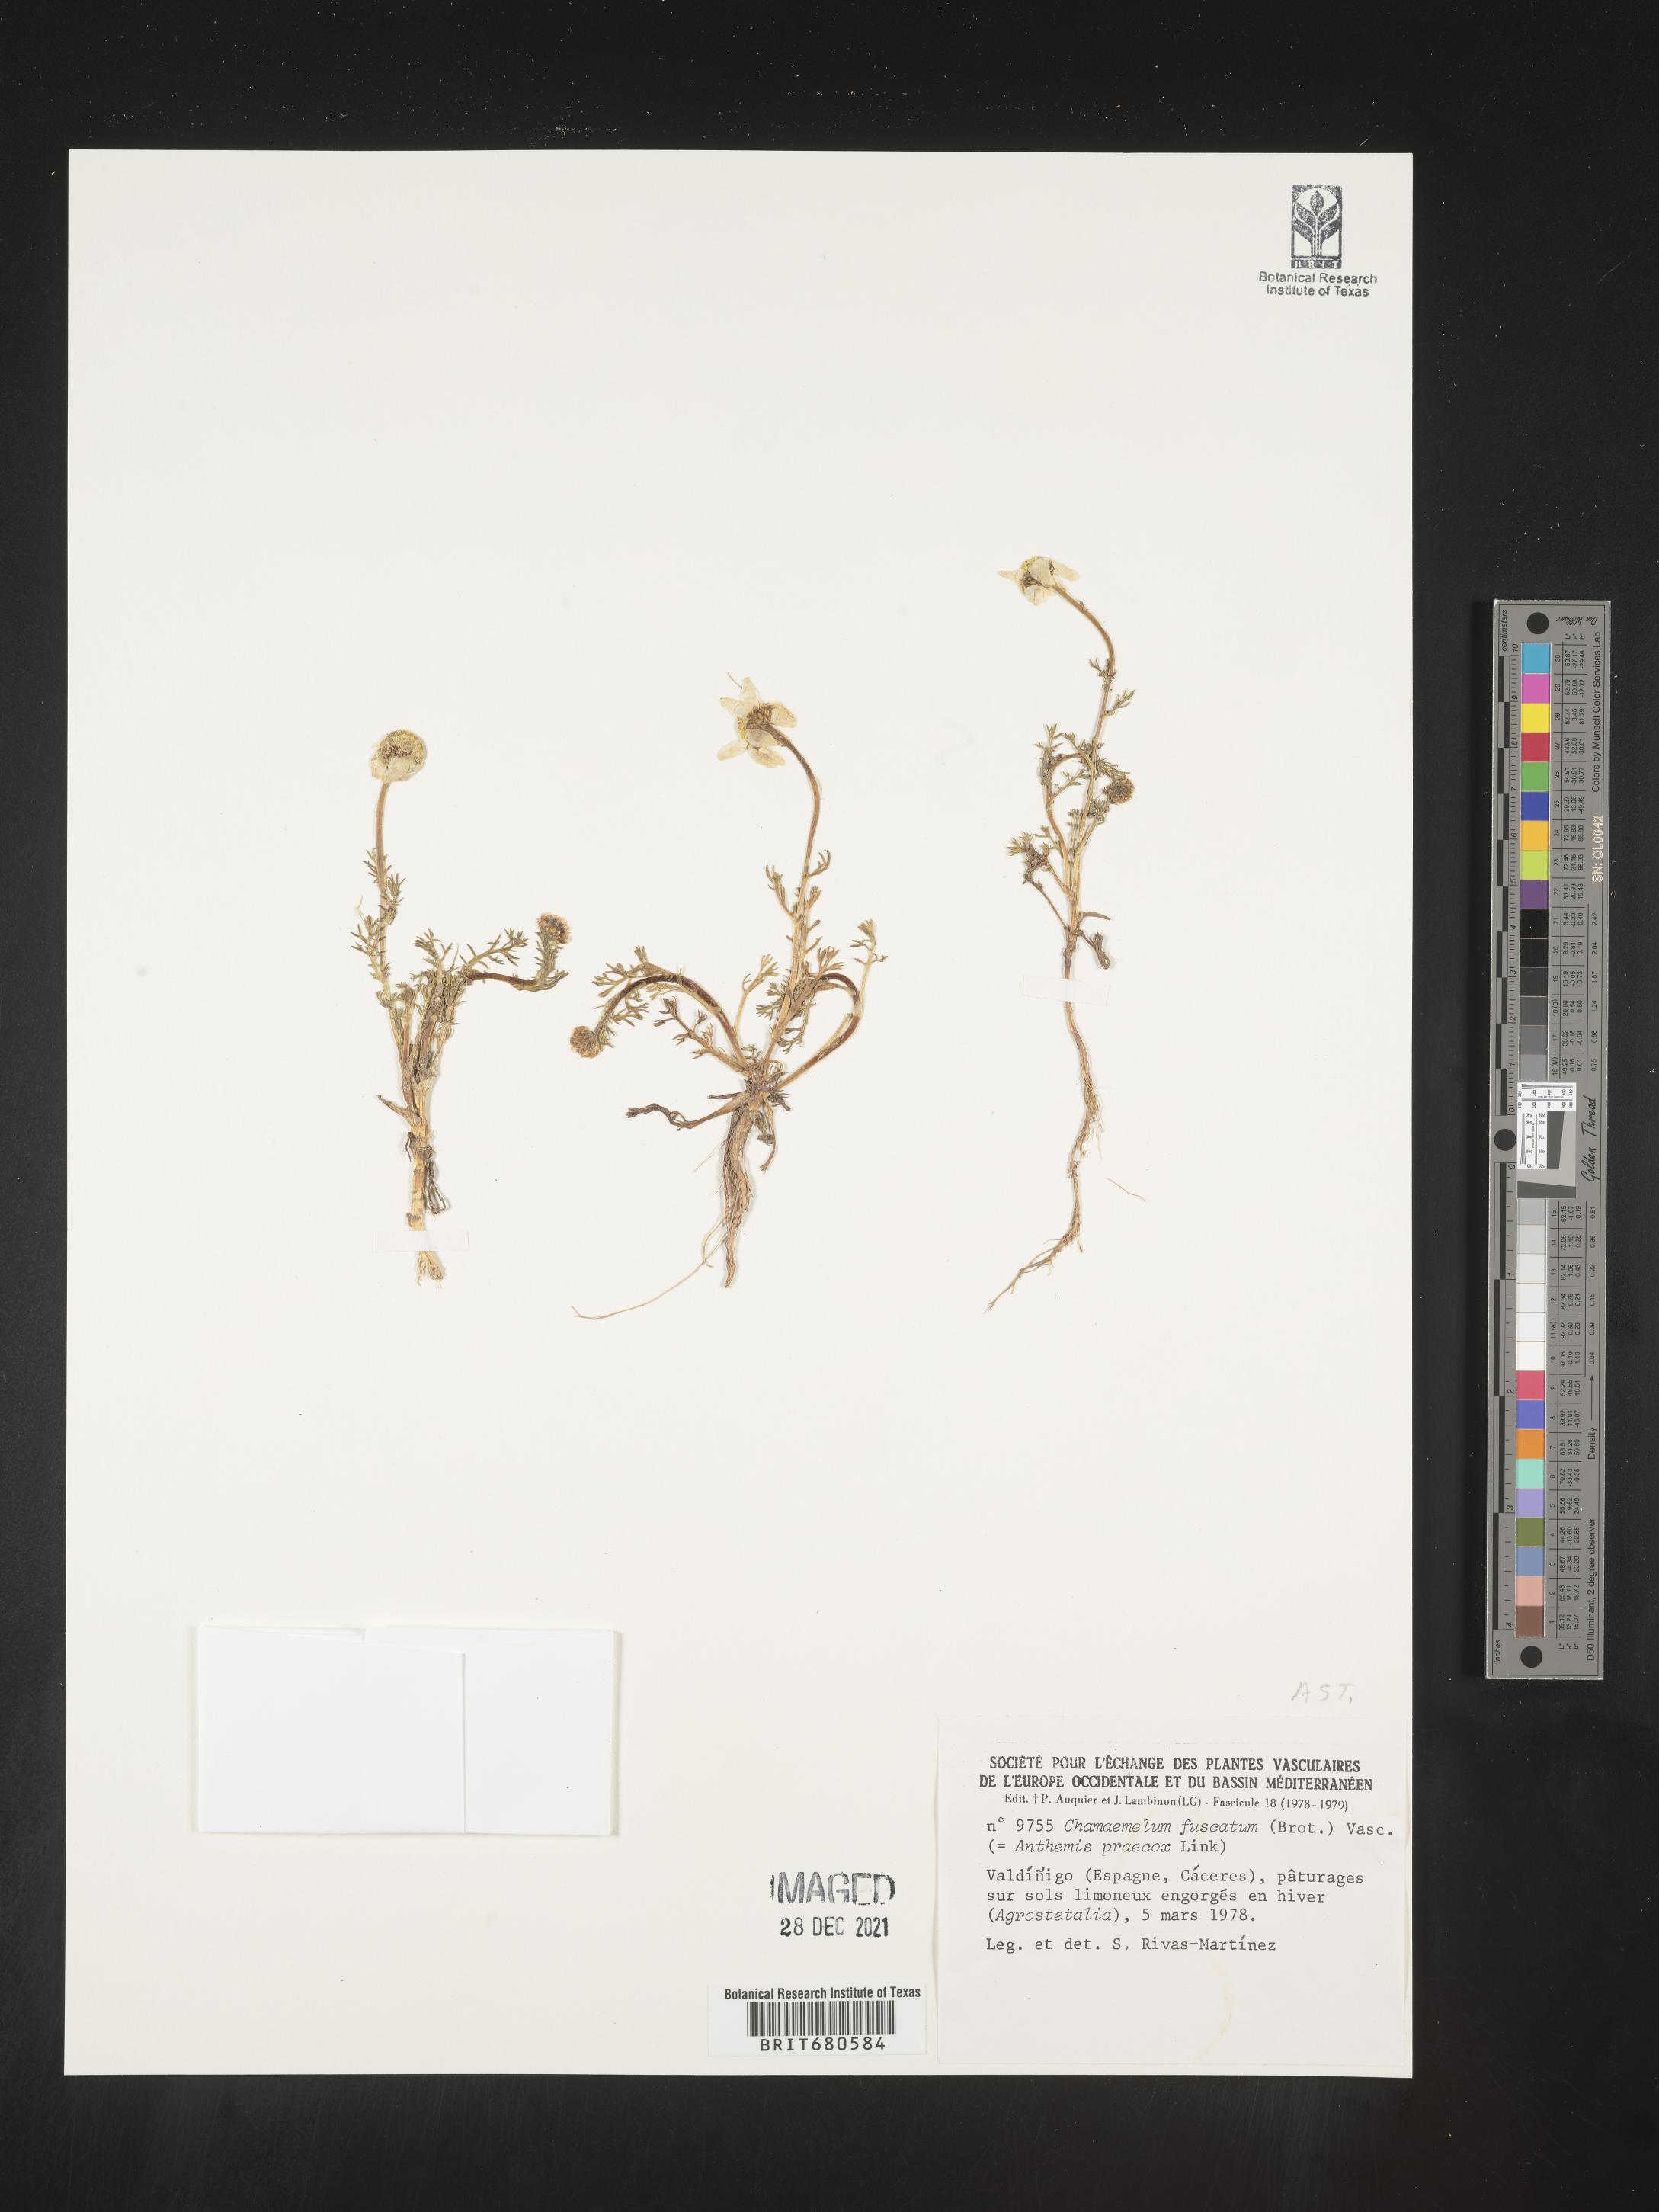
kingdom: Plantae
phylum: Tracheophyta
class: Magnoliopsida
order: Asterales
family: Asteraceae
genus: Anthemis
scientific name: Anthemis
